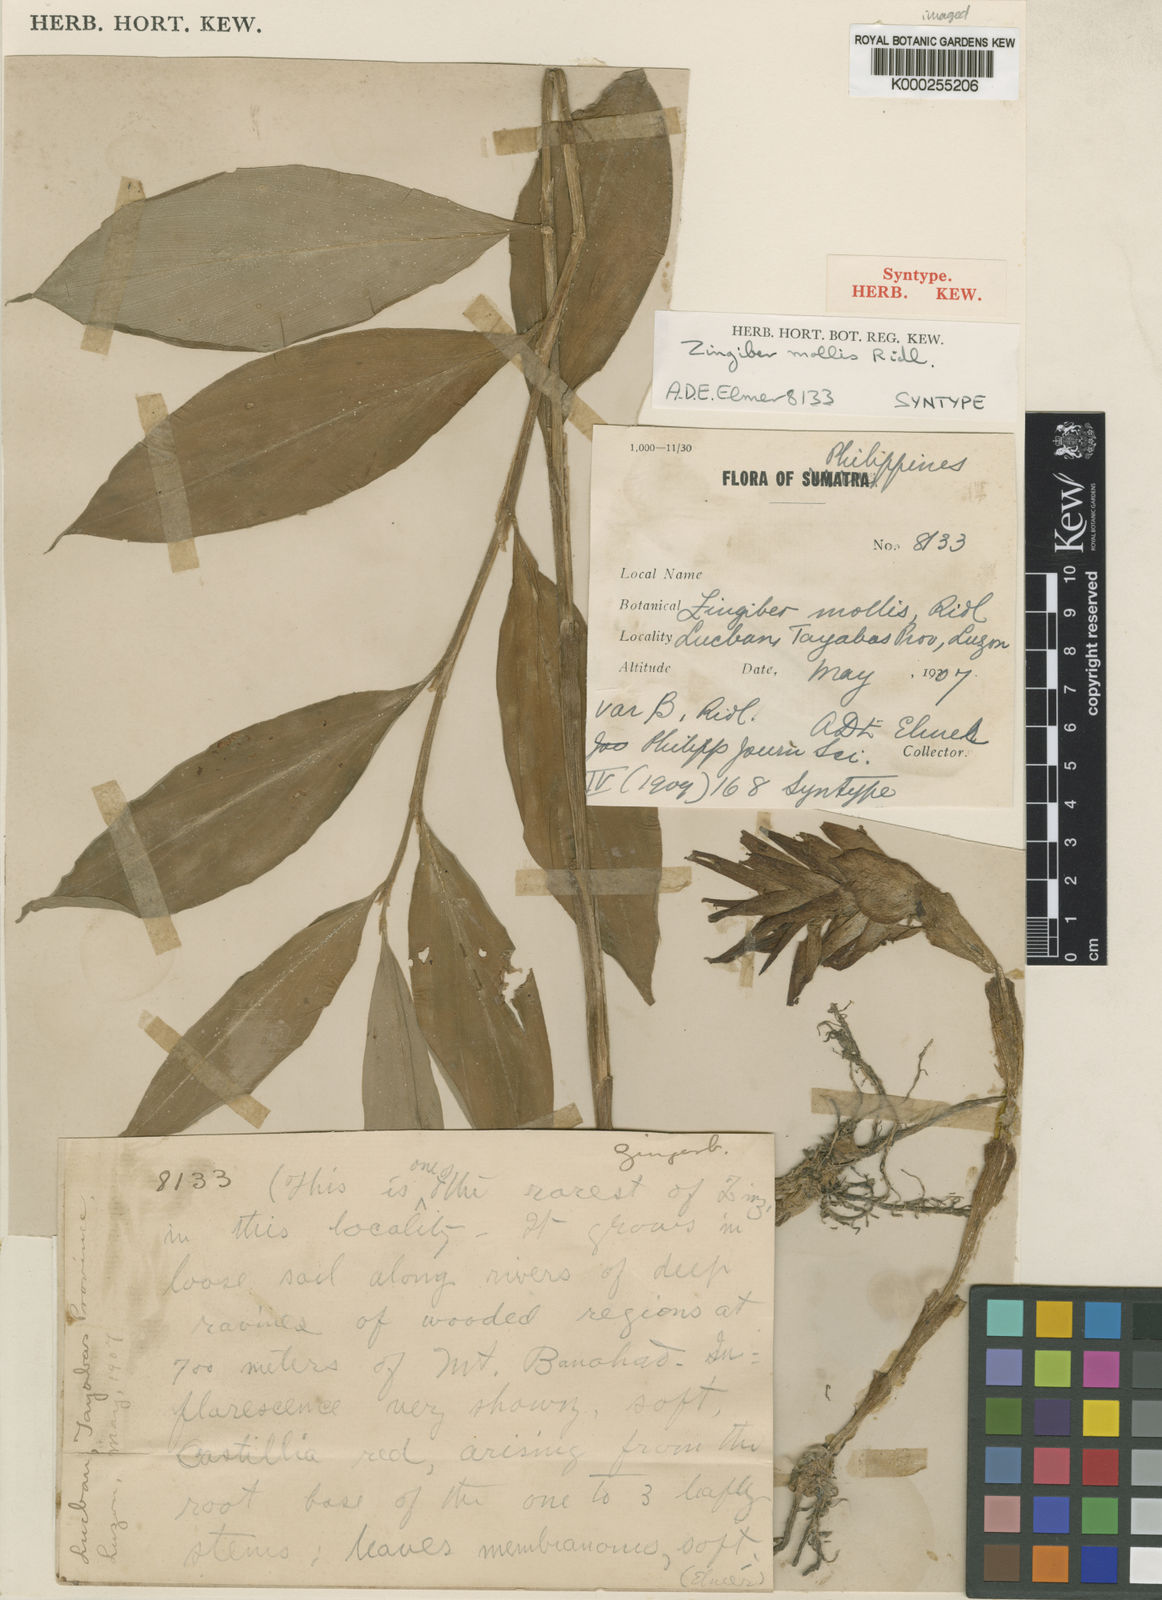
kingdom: Plantae
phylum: Tracheophyta
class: Liliopsida
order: Zingiberales
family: Zingiberaceae
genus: Zingiber
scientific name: Zingiber molle
